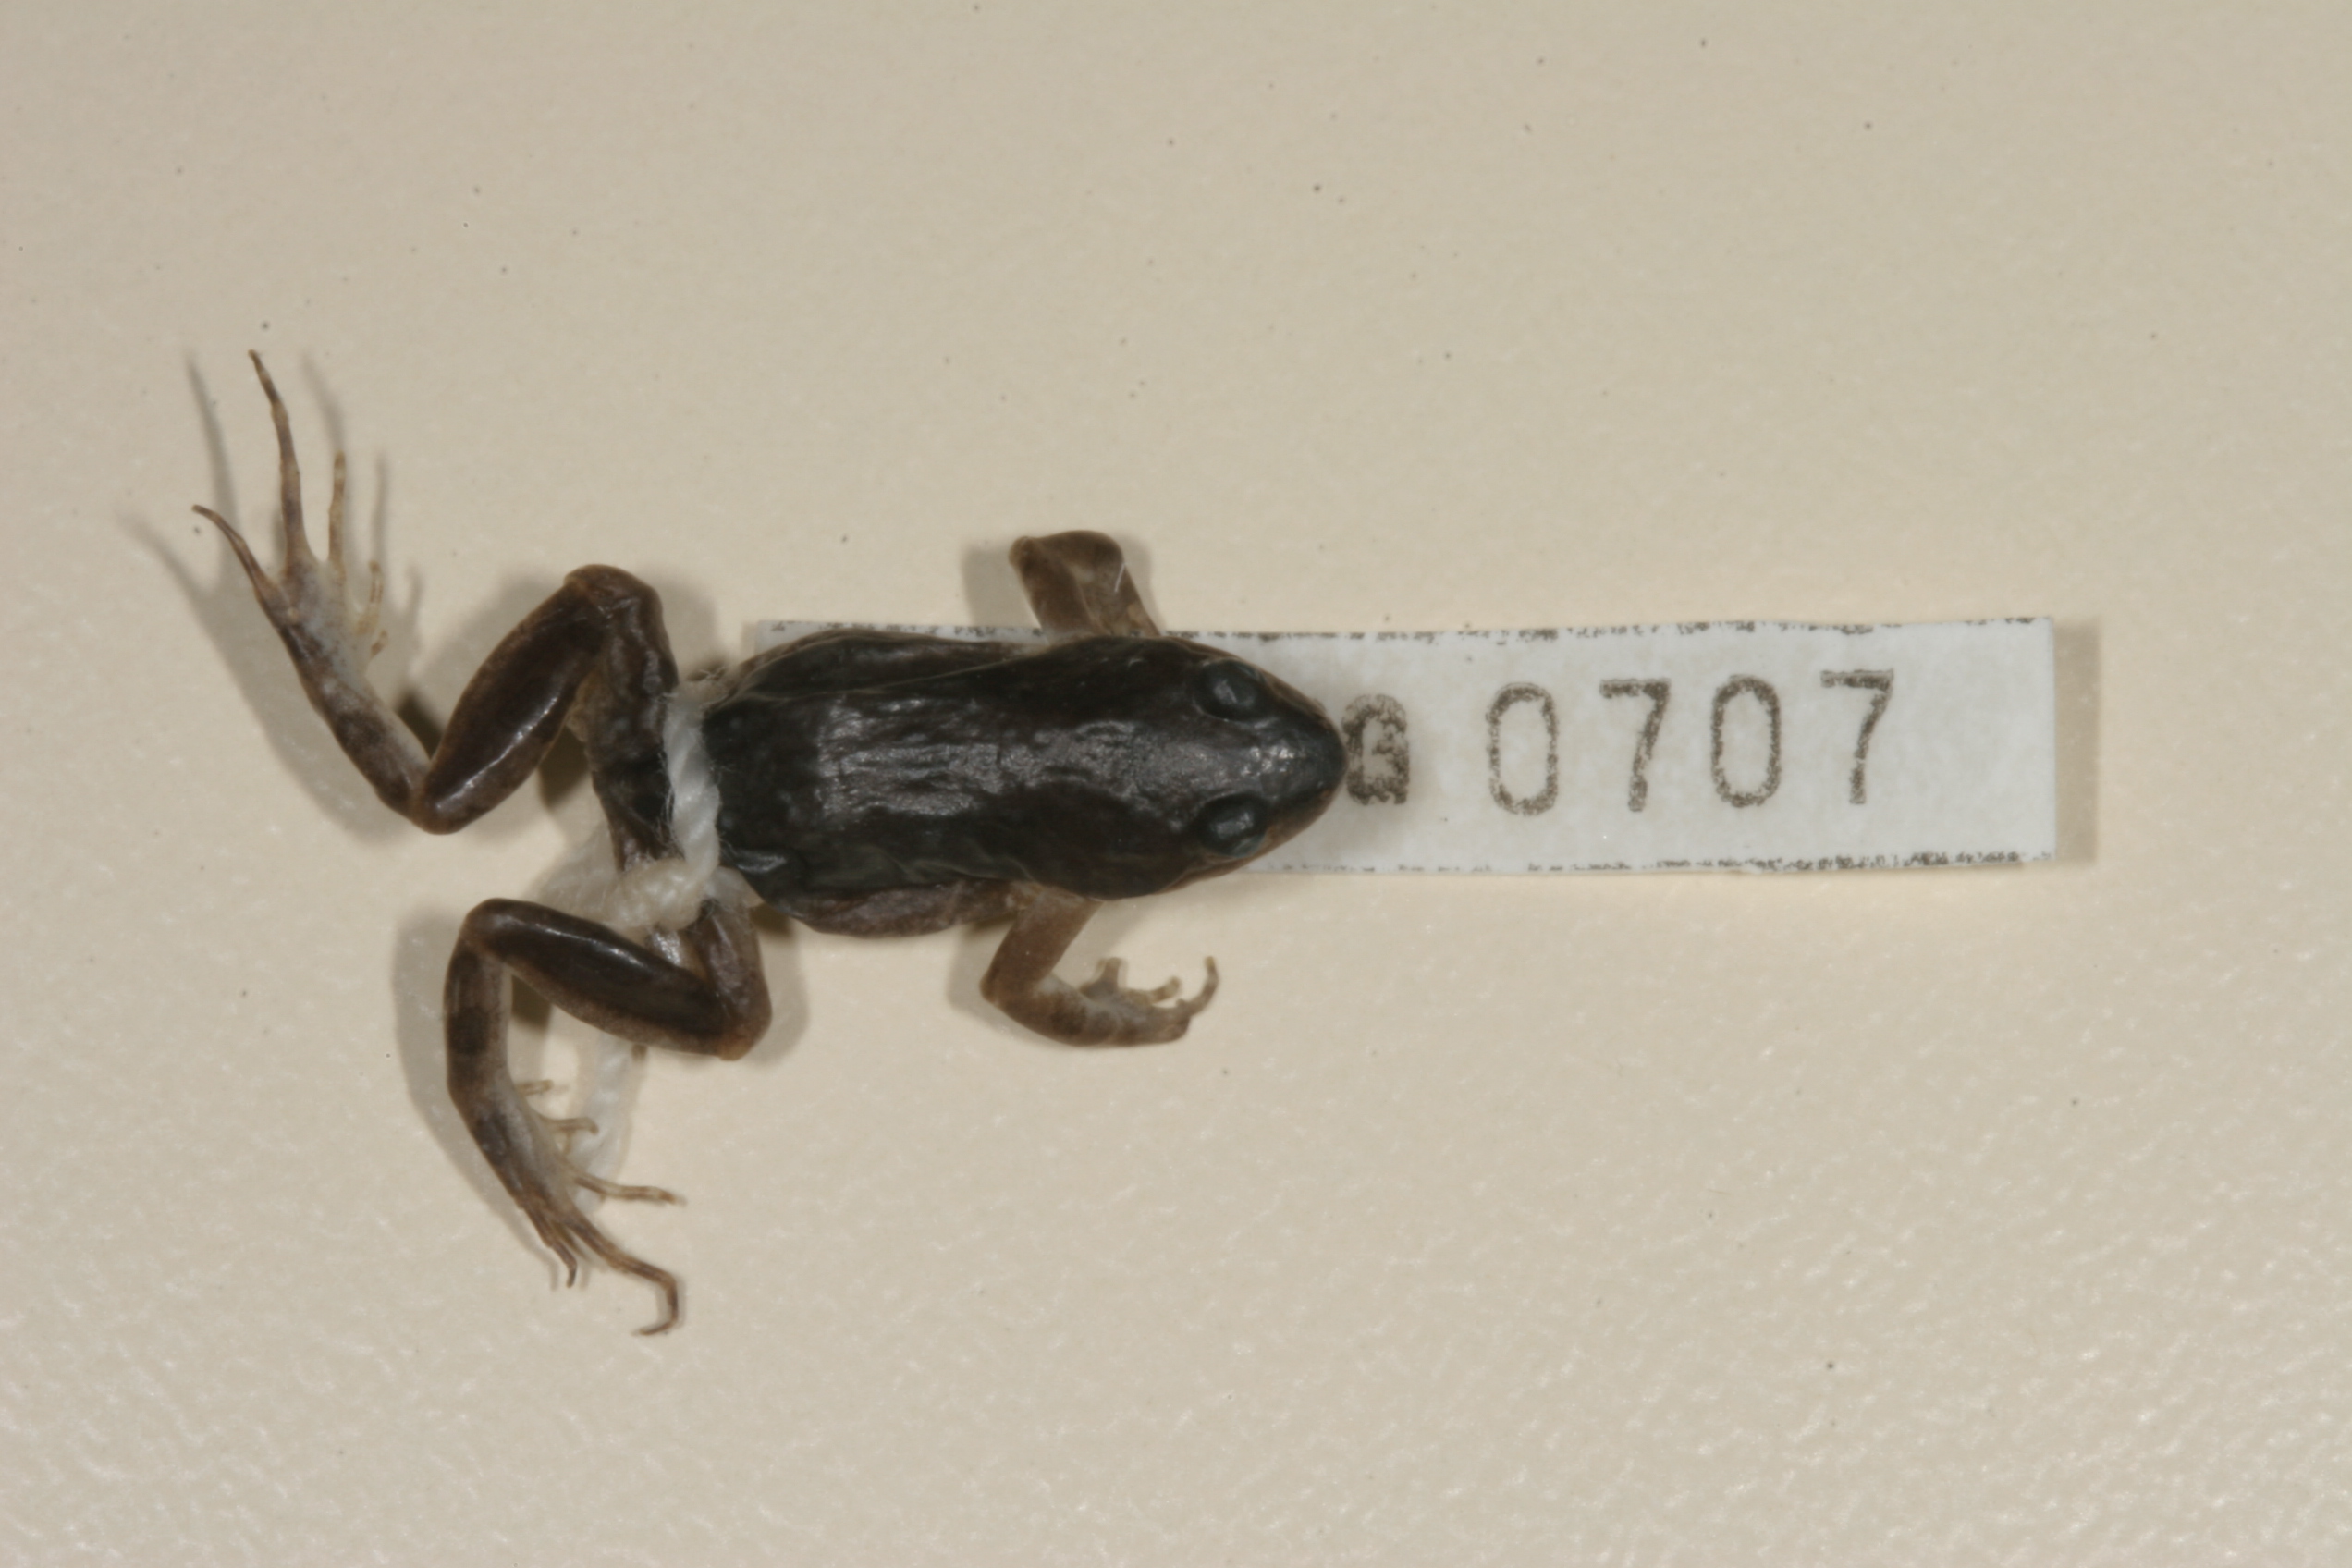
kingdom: Animalia
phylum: Chordata
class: Amphibia
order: Anura
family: Pyxicephalidae
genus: Cacosternum
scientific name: Cacosternum boettgeri
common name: Boettger's frog
